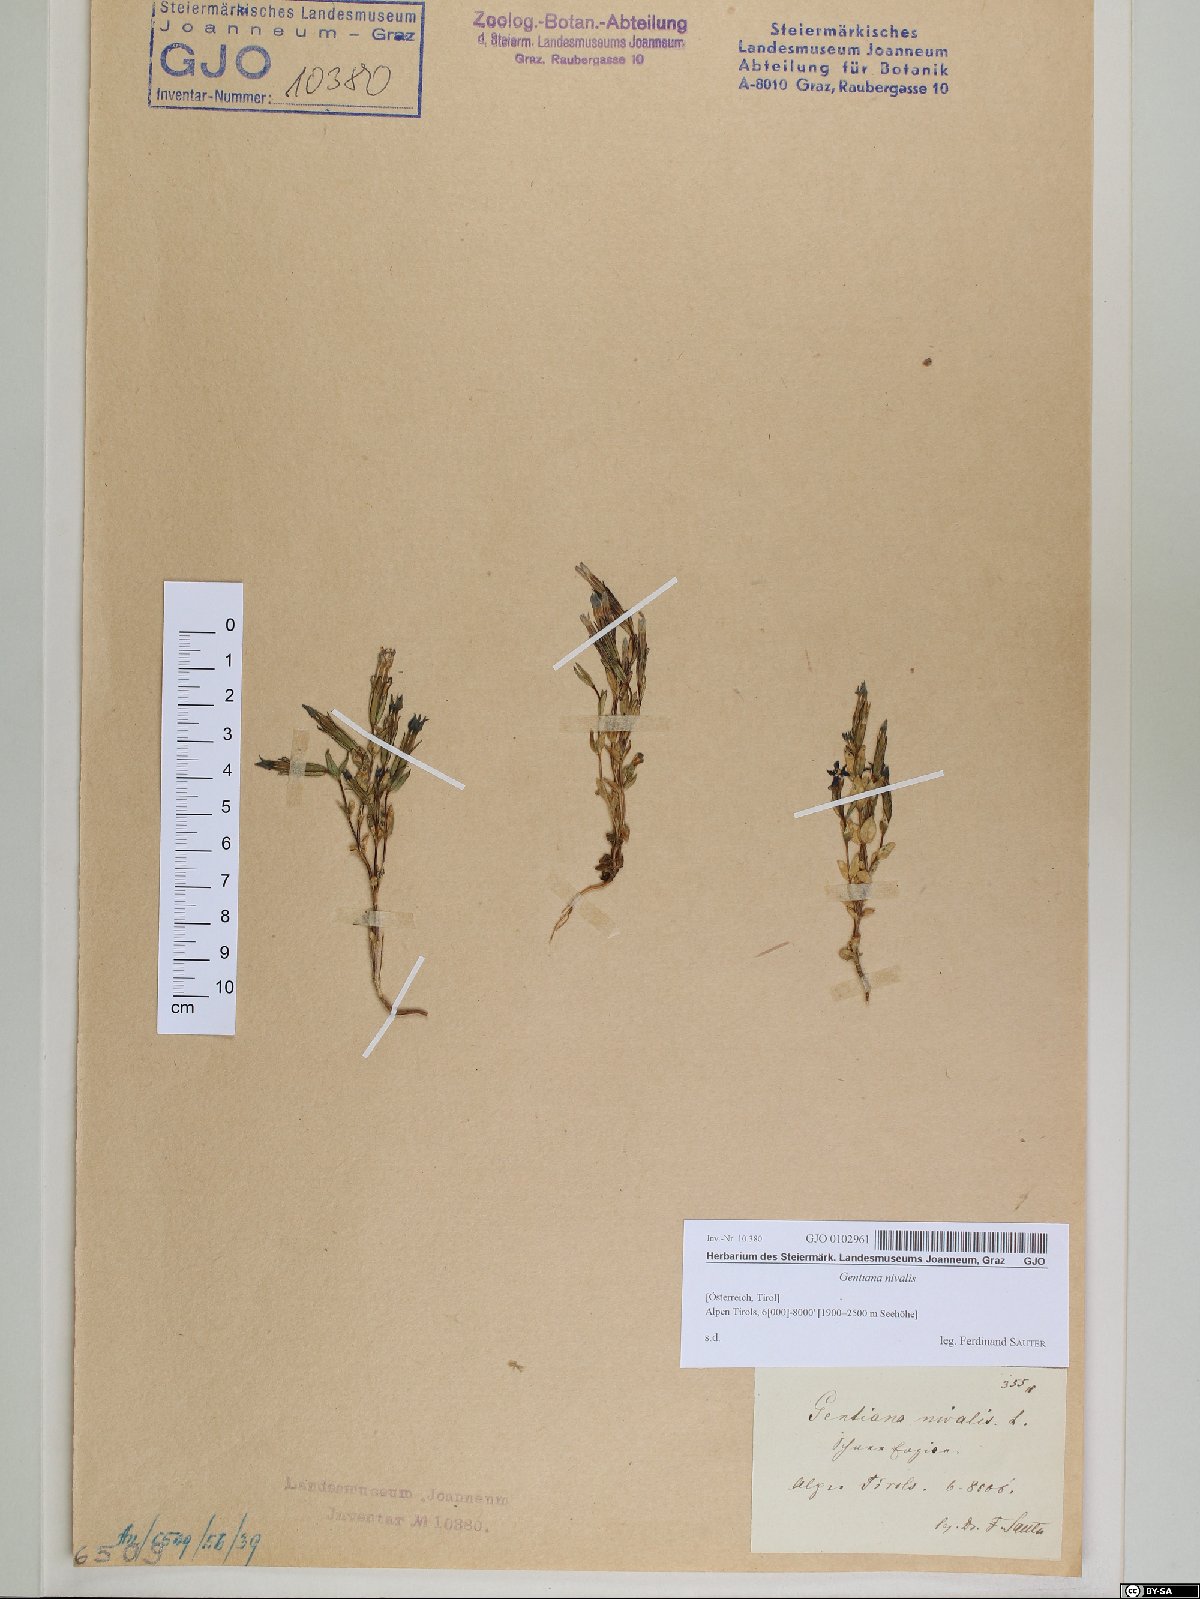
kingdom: Plantae
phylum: Tracheophyta
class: Magnoliopsida
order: Gentianales
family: Gentianaceae
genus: Gentiana
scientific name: Gentiana nivalis
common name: Alpine gentian
